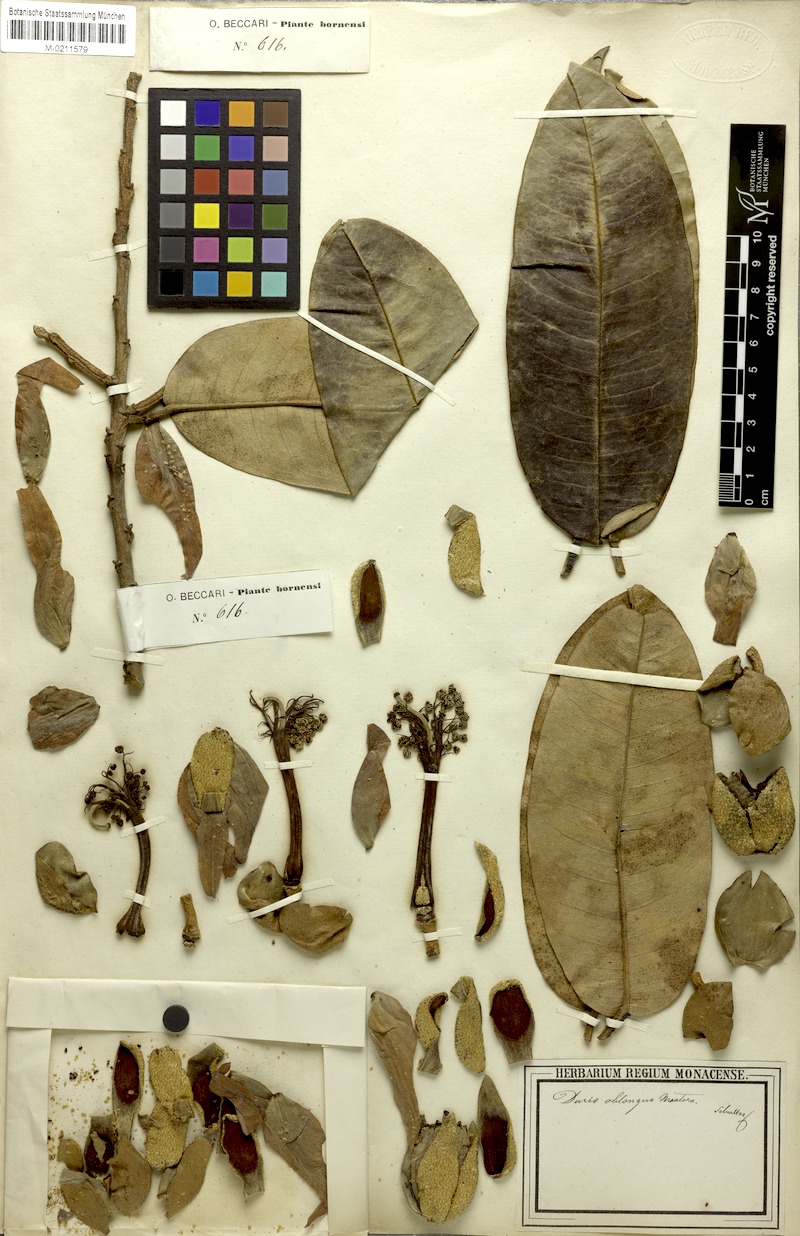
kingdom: Plantae
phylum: Tracheophyta
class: Magnoliopsida
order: Malvales
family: Malvaceae
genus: Durio
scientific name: Durio oblongus
